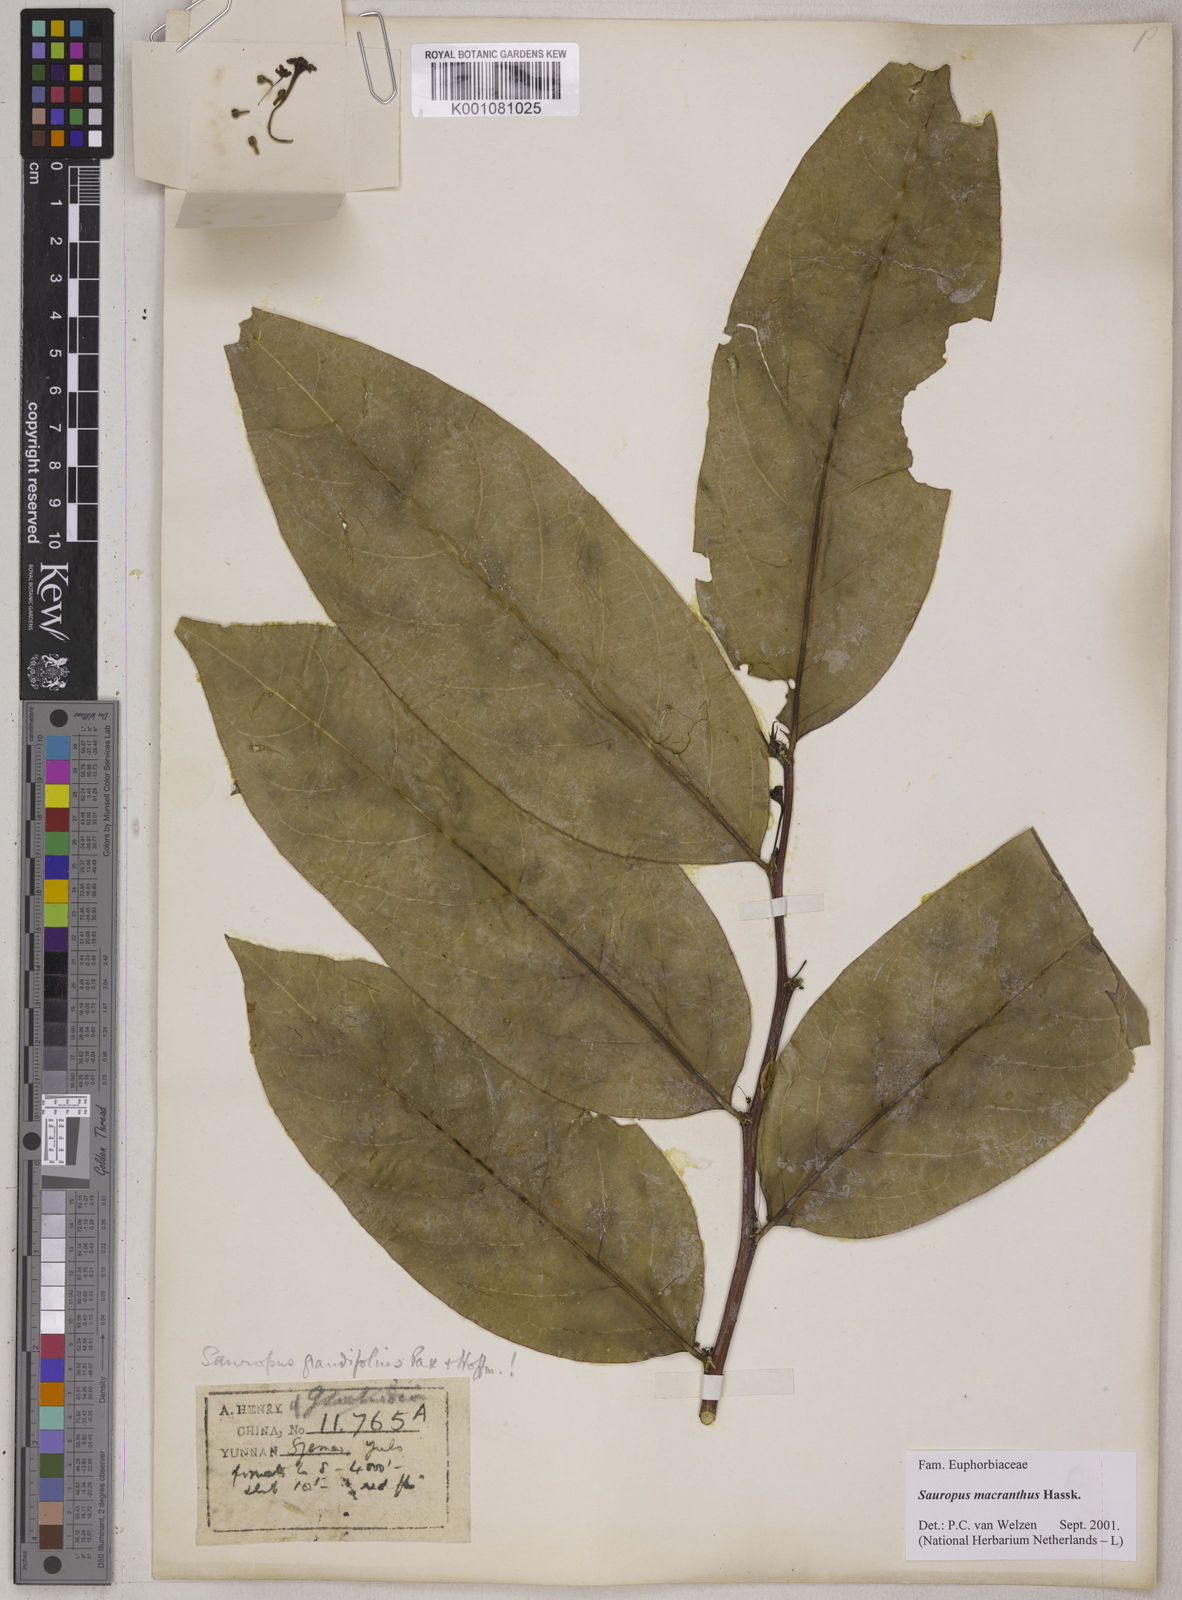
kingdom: Plantae
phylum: Tracheophyta
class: Magnoliopsida
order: Malpighiales
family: Phyllanthaceae
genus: Breynia
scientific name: Breynia macrantha
